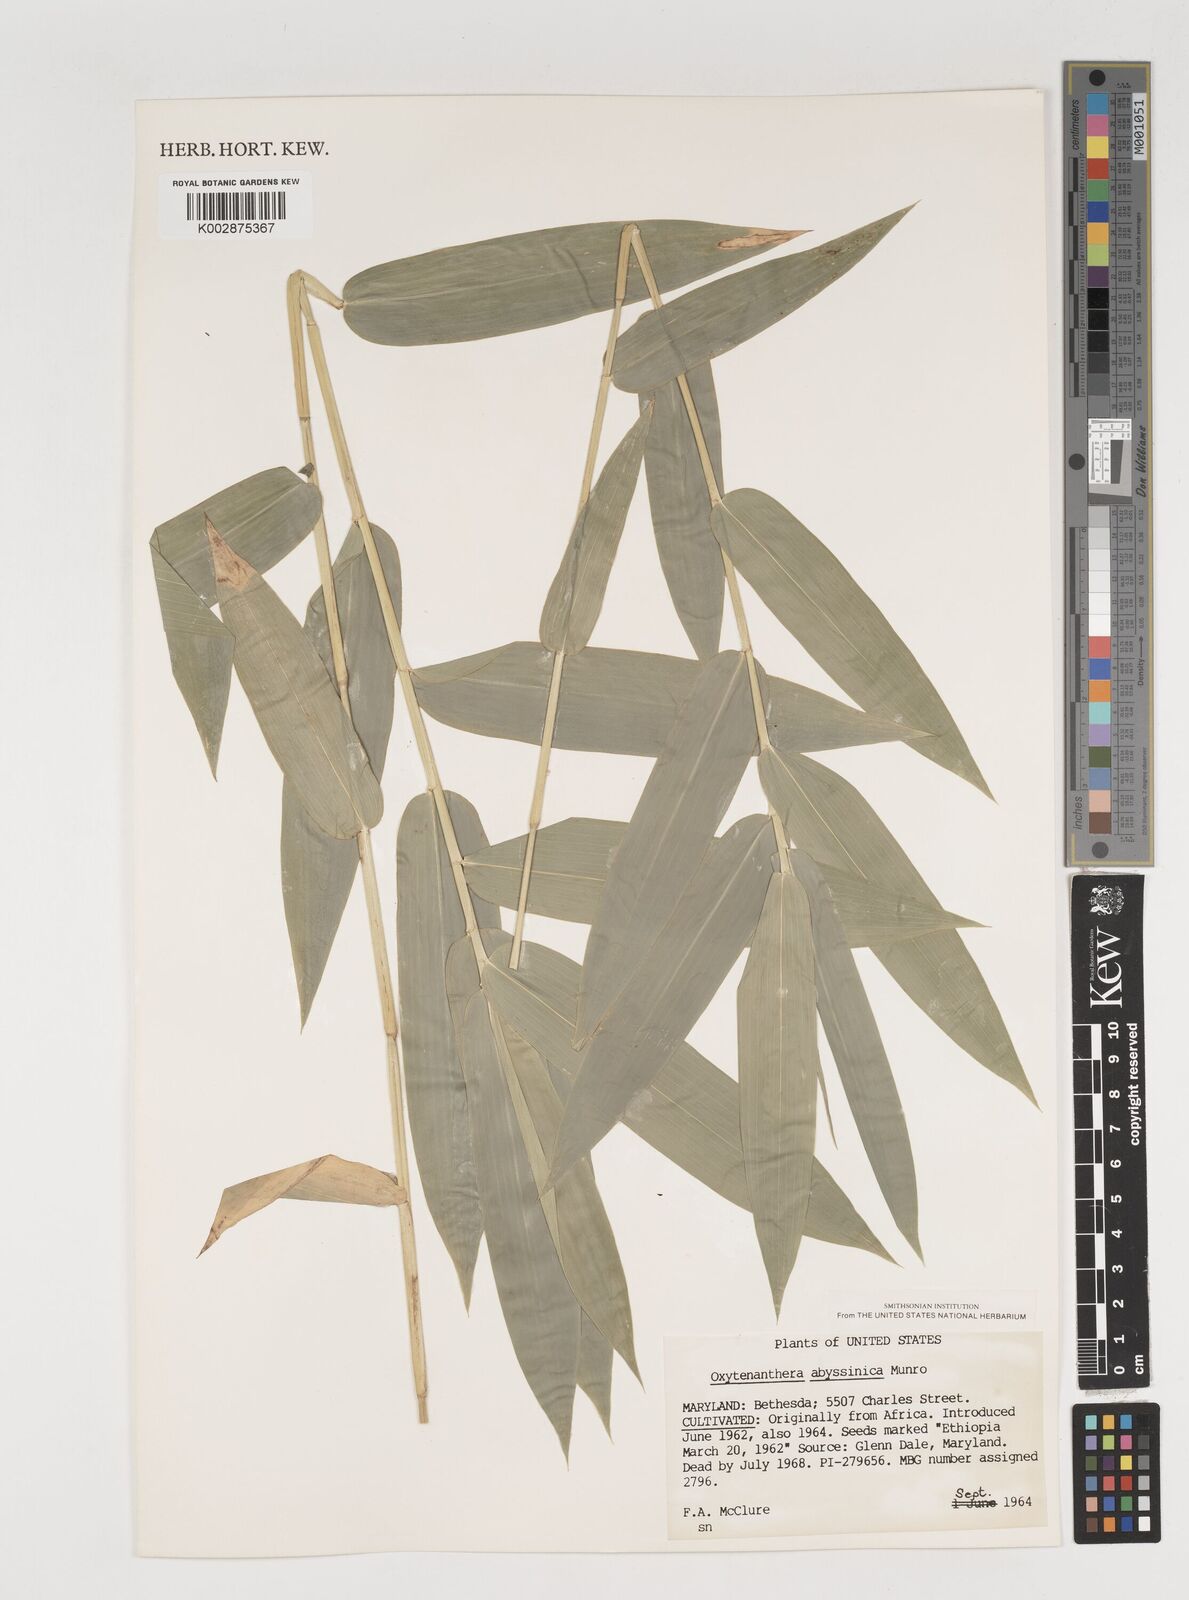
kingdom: Plantae
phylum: Tracheophyta
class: Liliopsida
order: Poales
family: Poaceae
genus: Oxytenanthera
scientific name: Oxytenanthera abyssinica
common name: Wine bamboo
